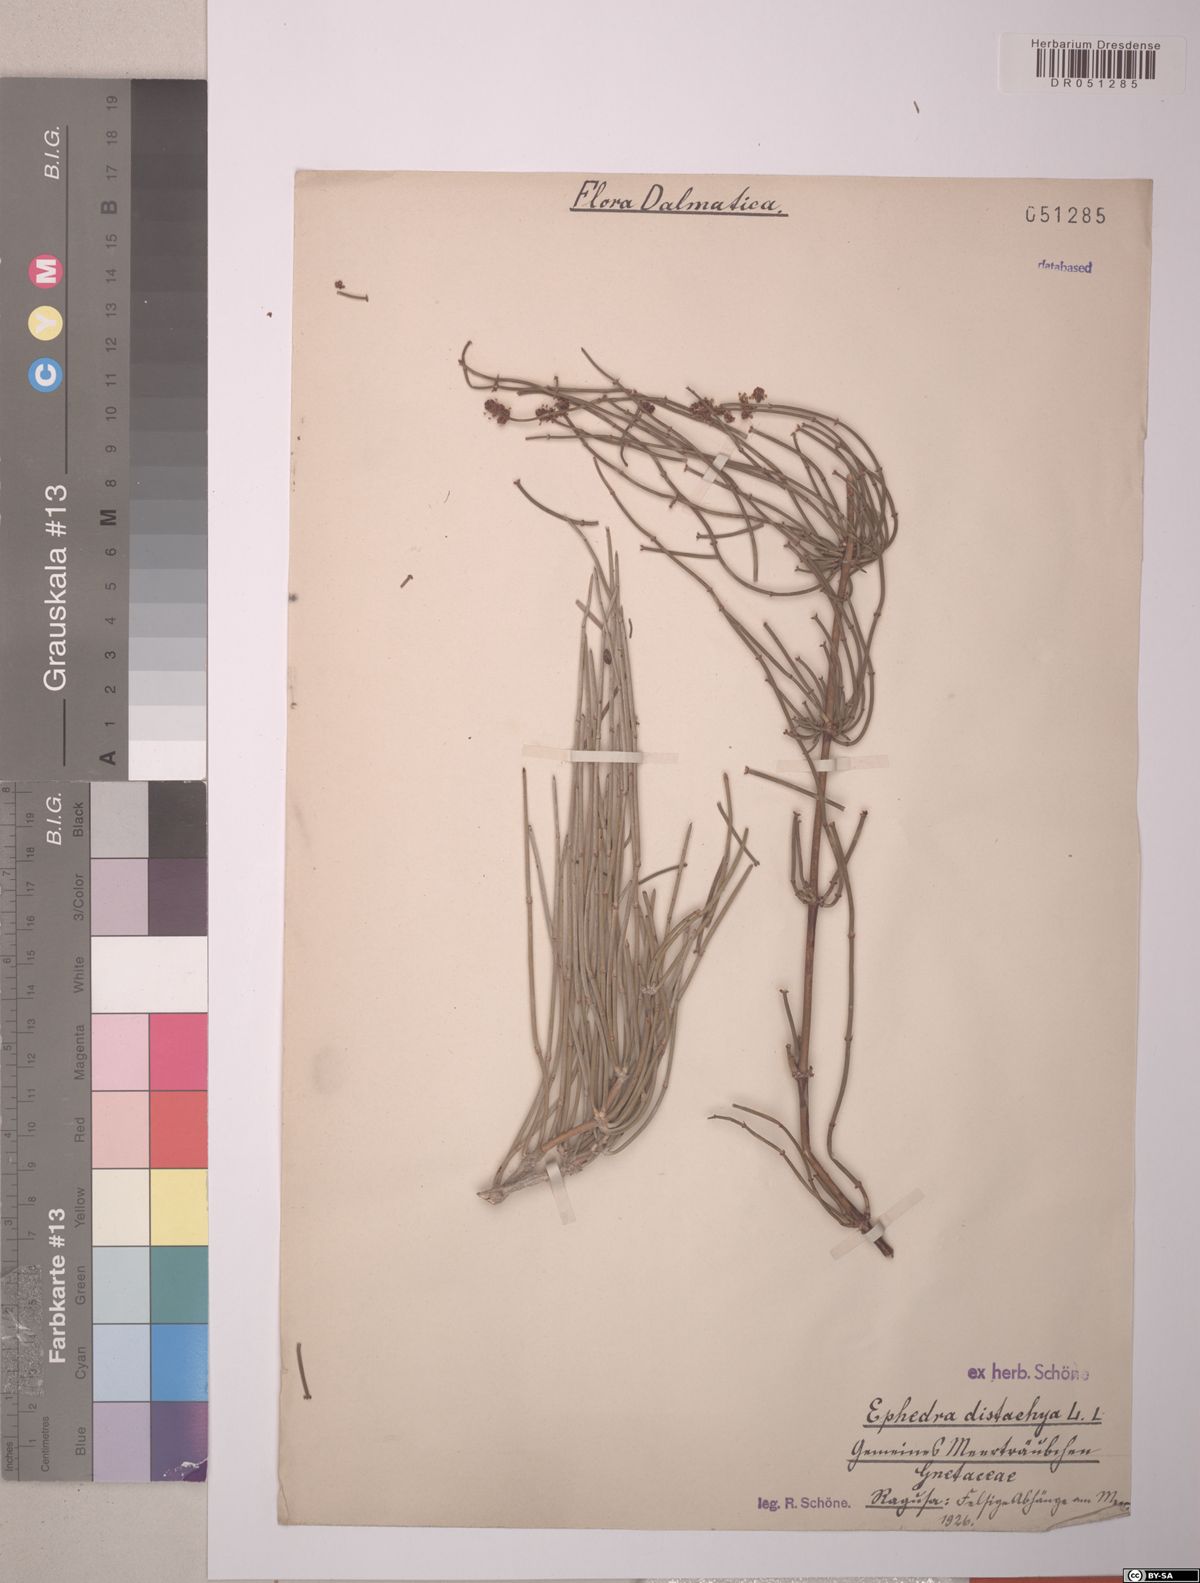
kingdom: Plantae
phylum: Tracheophyta
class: Gnetopsida
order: Ephedrales
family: Ephedraceae
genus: Ephedra
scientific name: Ephedra distachya
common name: Sea grape
